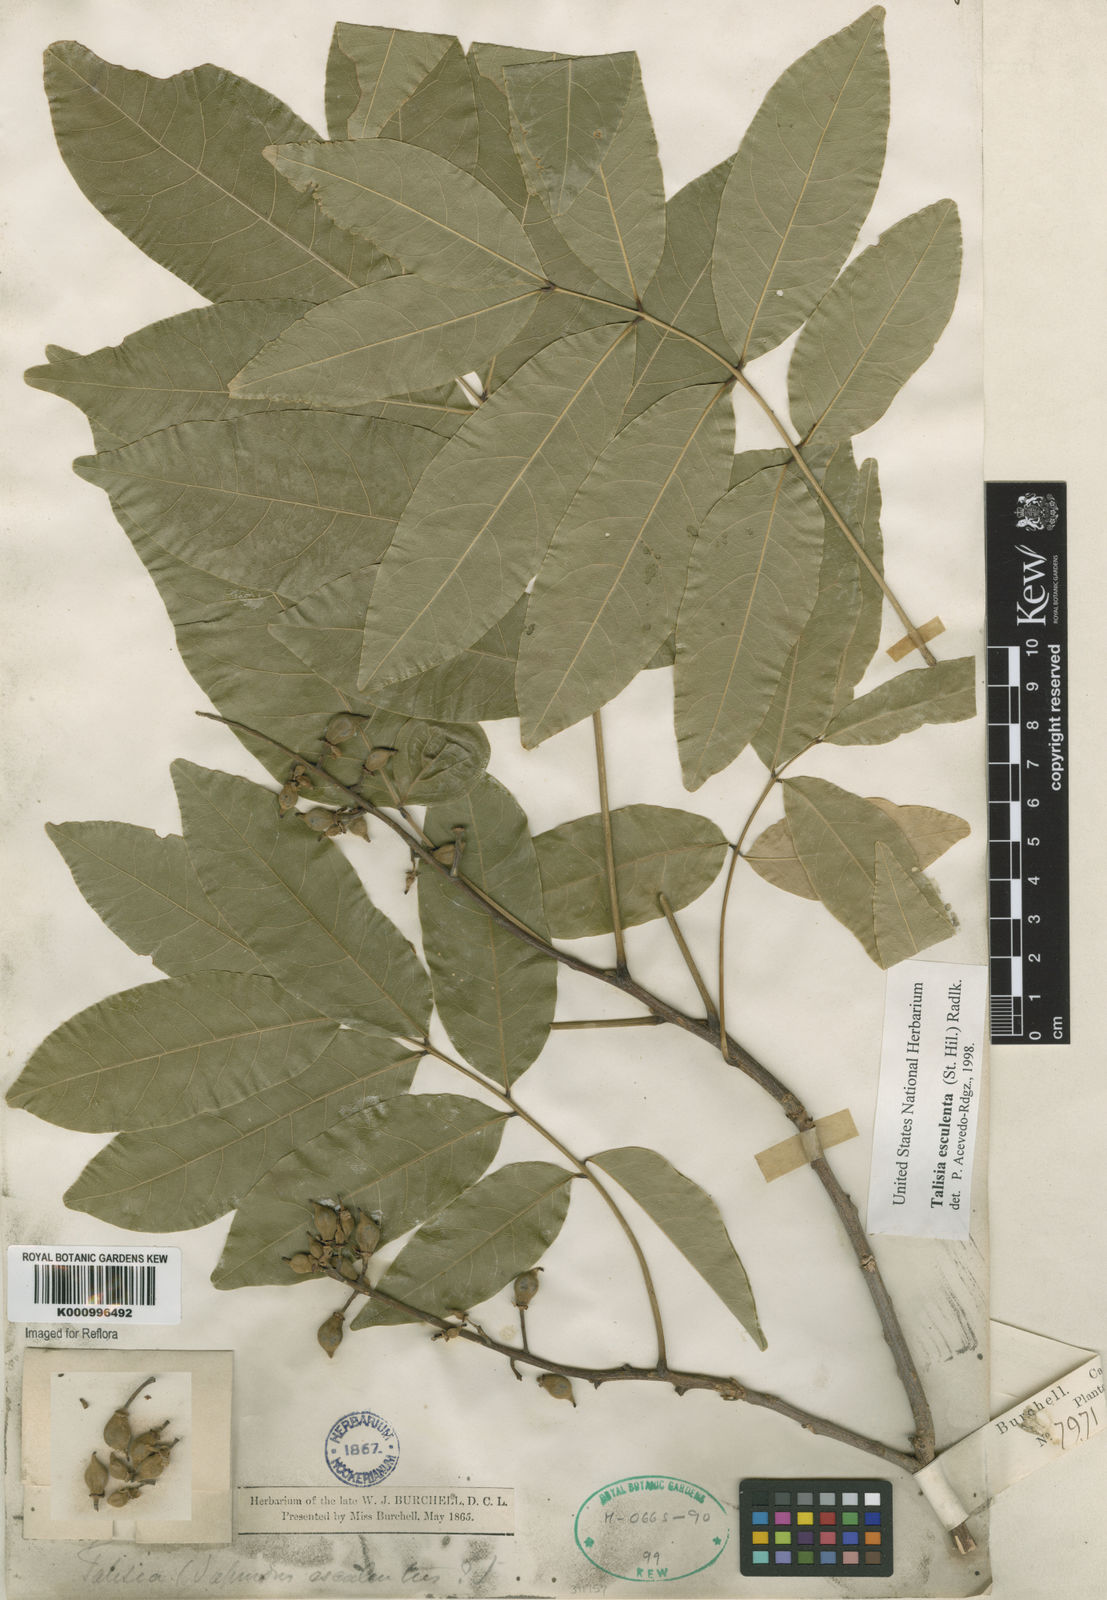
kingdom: Plantae
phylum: Tracheophyta
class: Magnoliopsida
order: Sapindales
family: Sapindaceae
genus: Talisia
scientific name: Talisia
